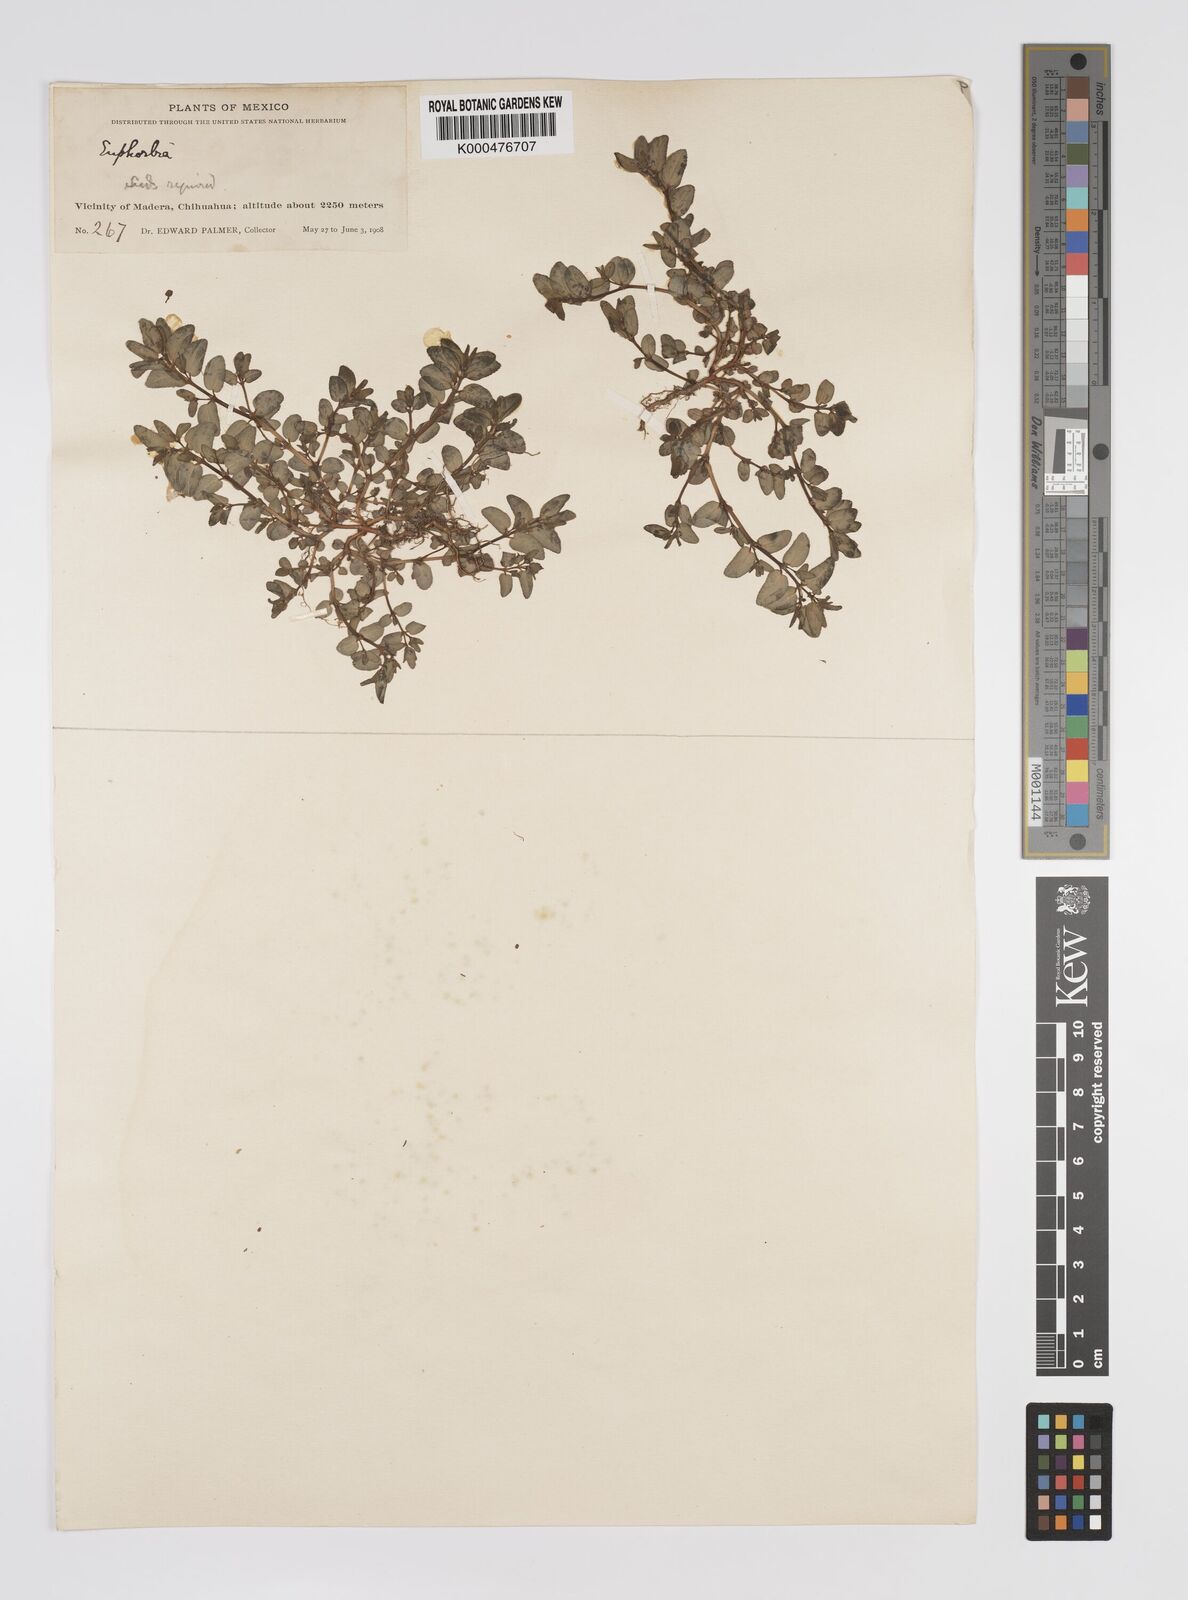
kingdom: Plantae
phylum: Tracheophyta
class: Magnoliopsida
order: Malpighiales
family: Euphorbiaceae
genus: Euphorbia
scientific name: Euphorbia
